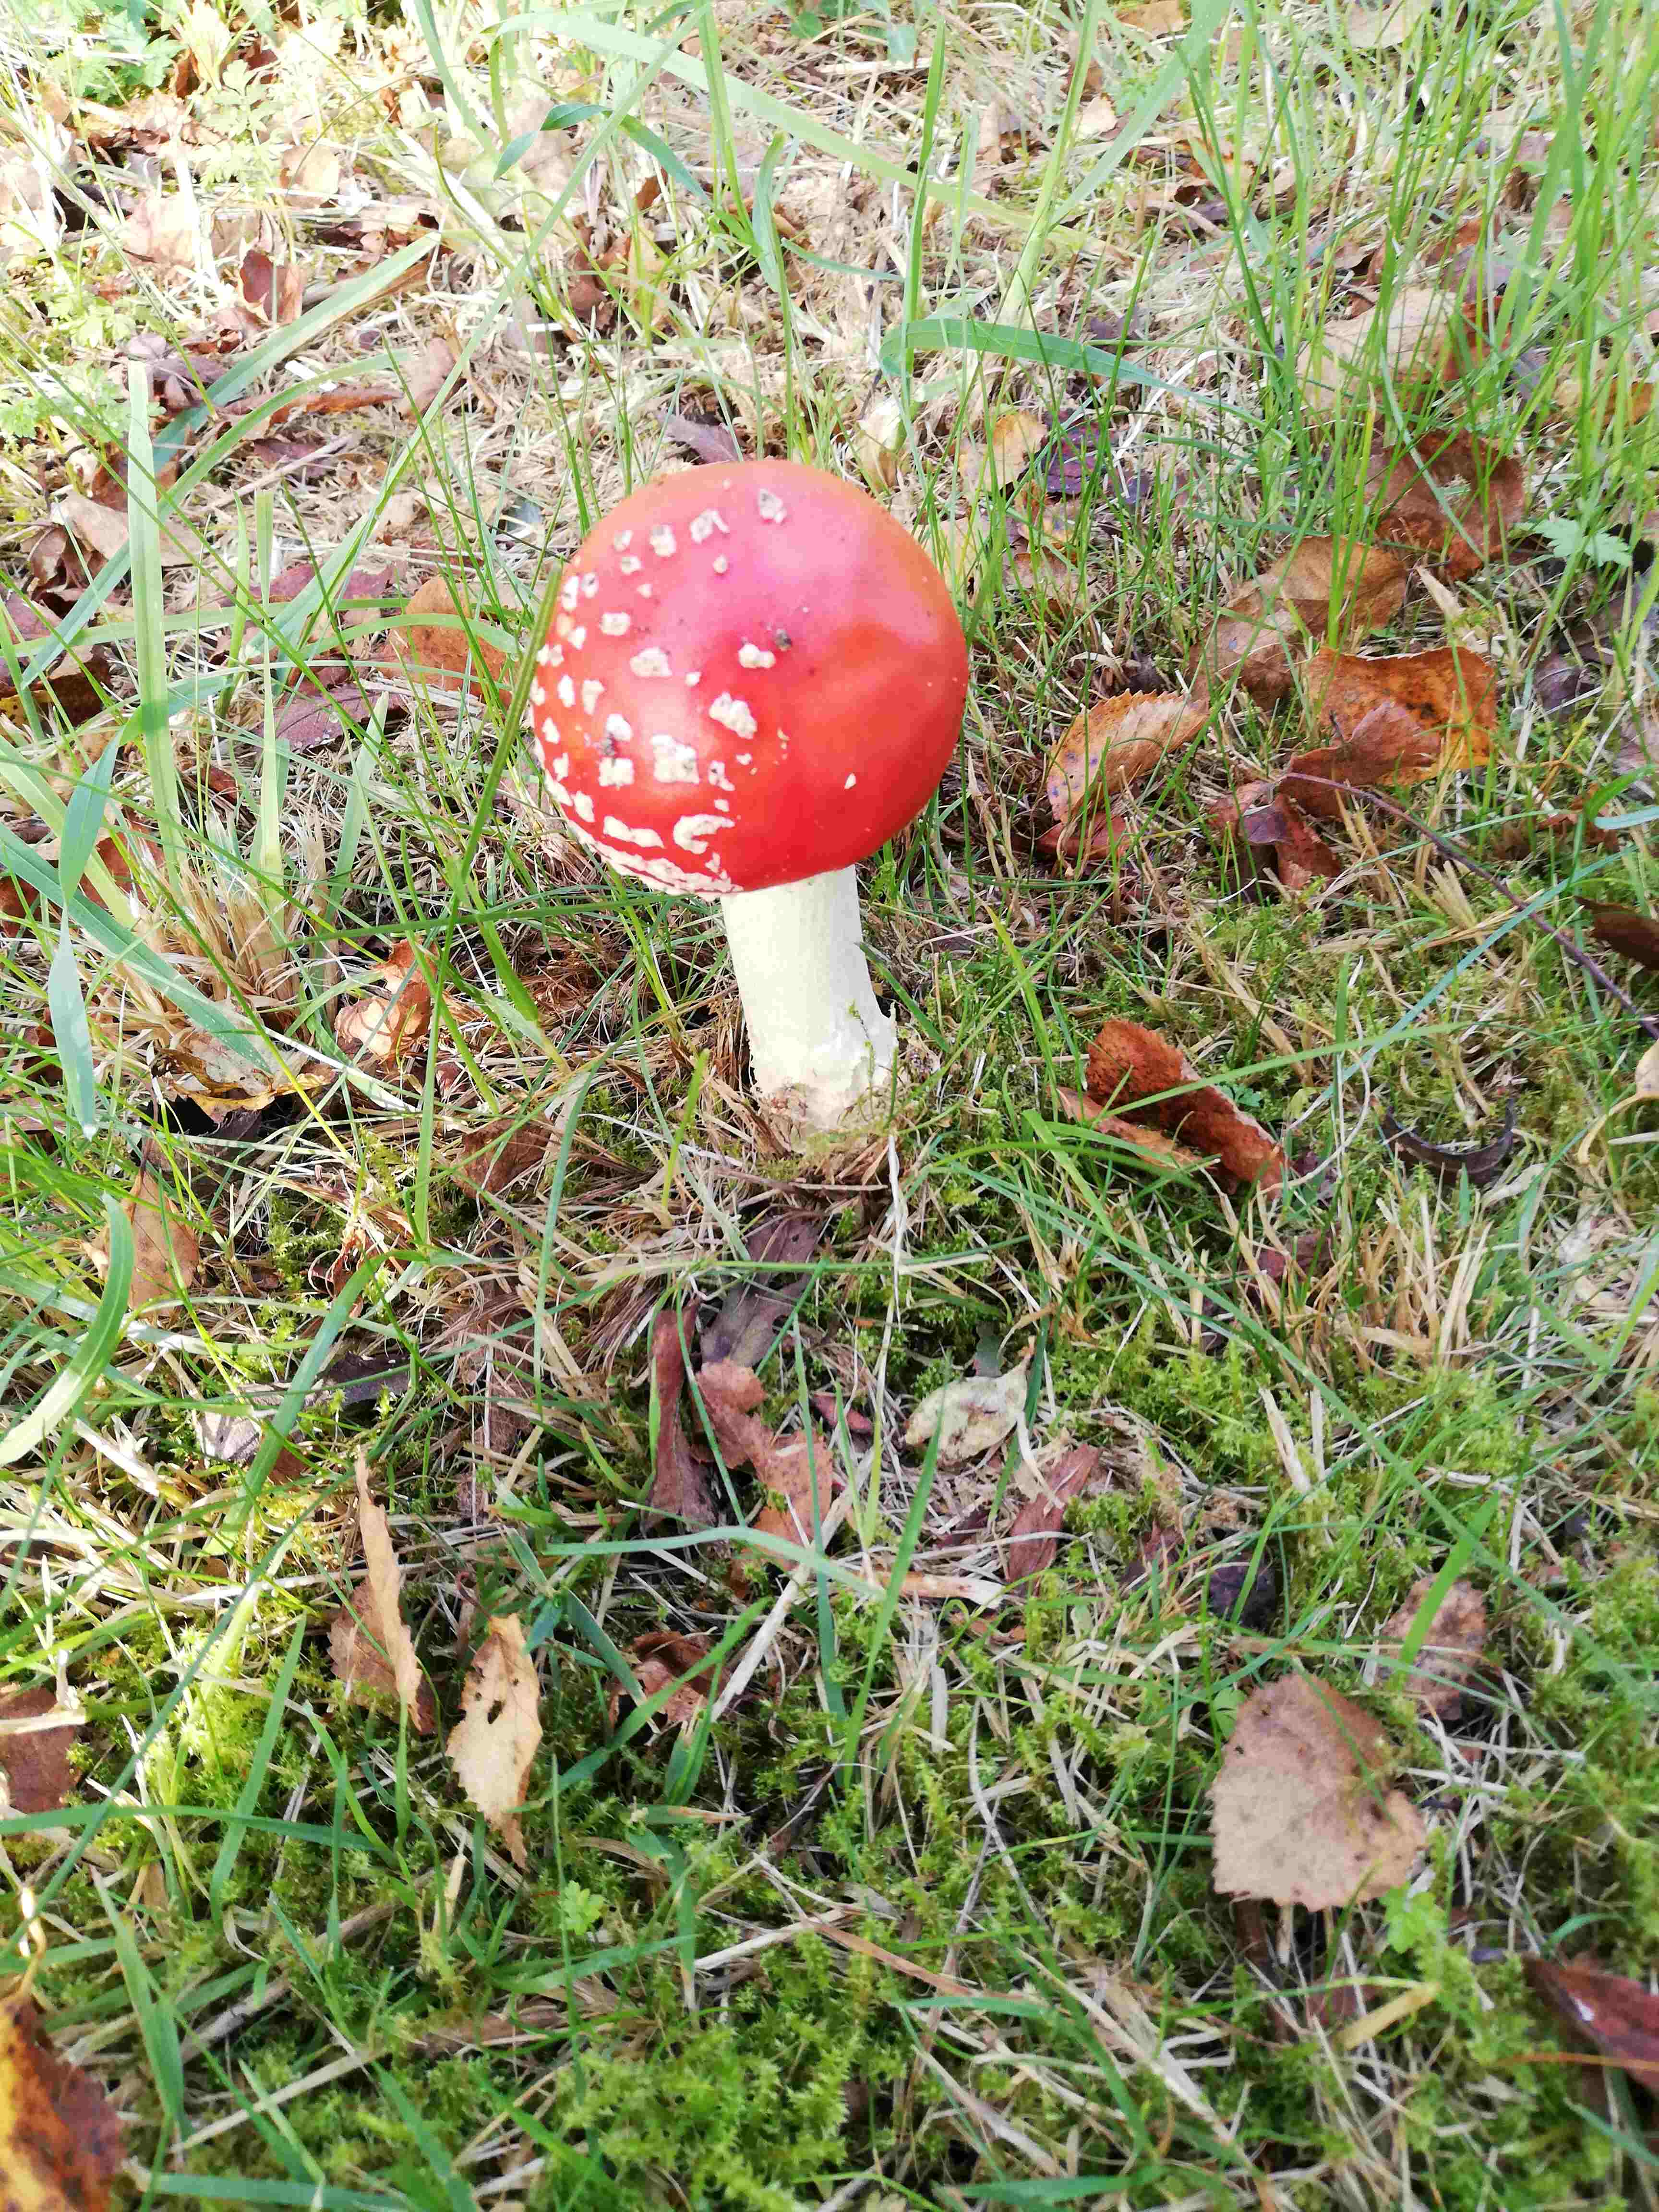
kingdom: Fungi
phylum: Basidiomycota
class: Agaricomycetes
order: Agaricales
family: Amanitaceae
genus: Amanita
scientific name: Amanita muscaria
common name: rød fluesvamp
